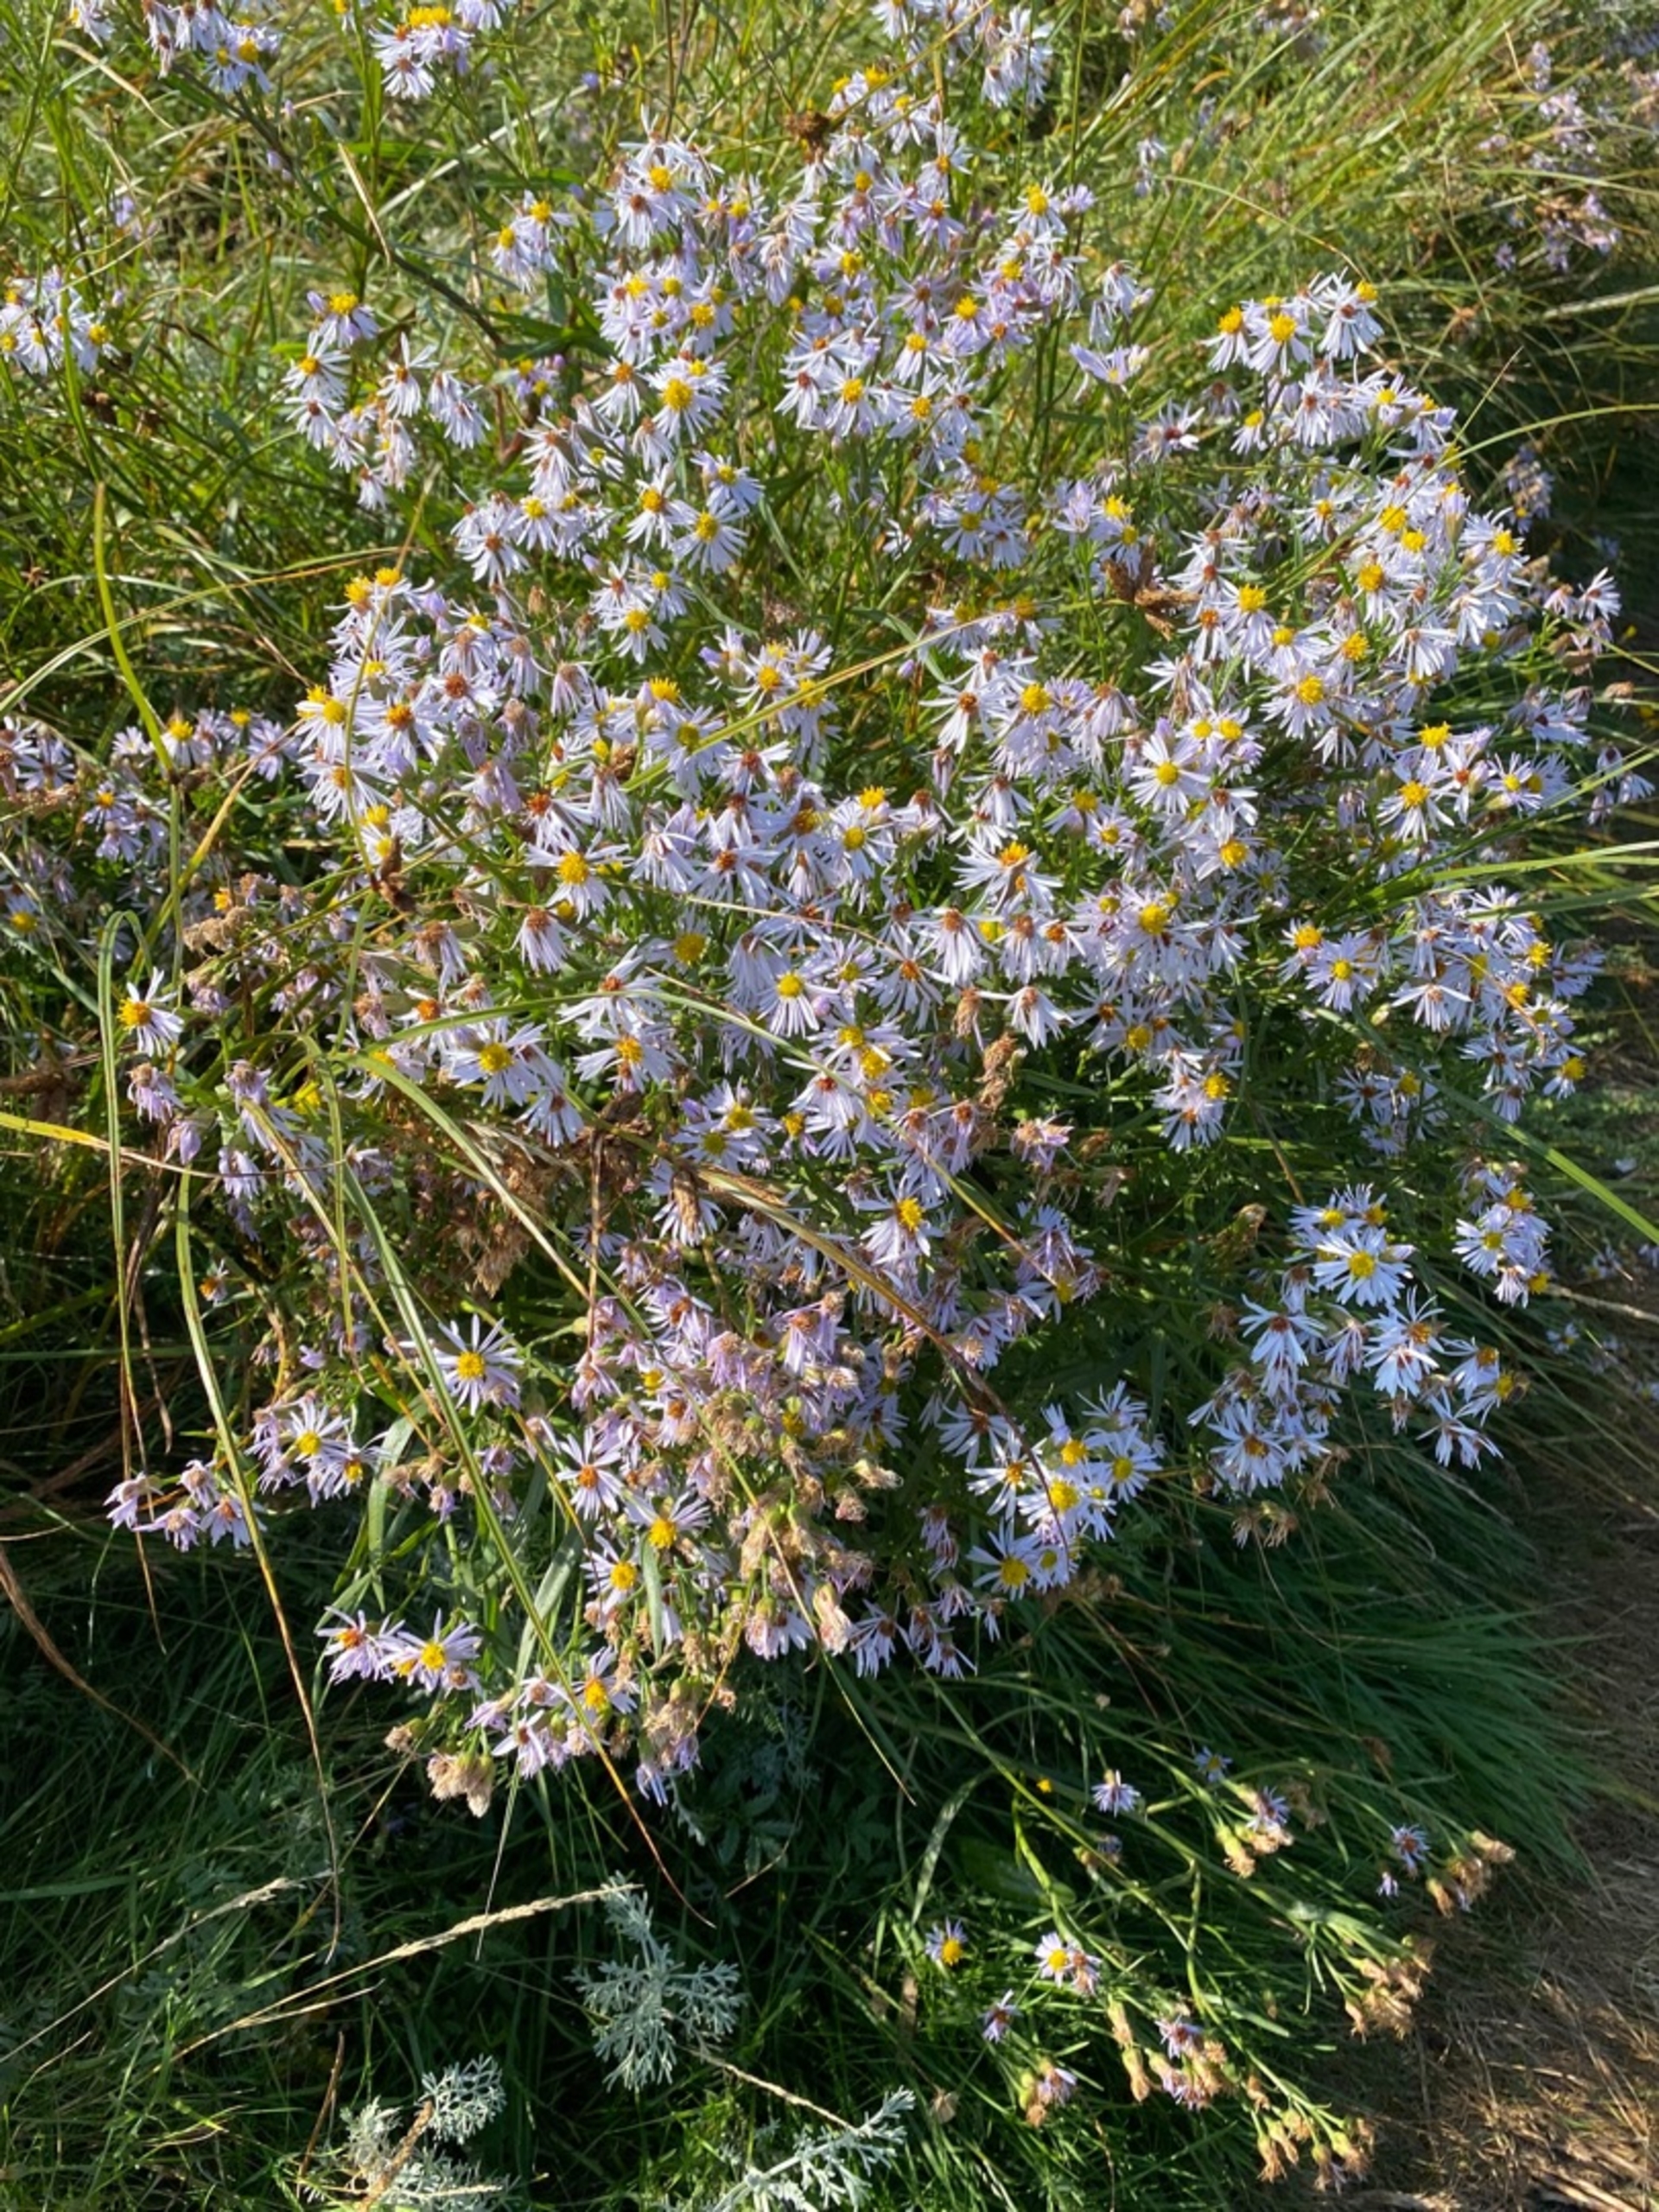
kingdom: Plantae
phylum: Tracheophyta
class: Magnoliopsida
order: Asterales
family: Asteraceae
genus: Tripolium
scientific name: Tripolium pannonicum
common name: Strandasters
